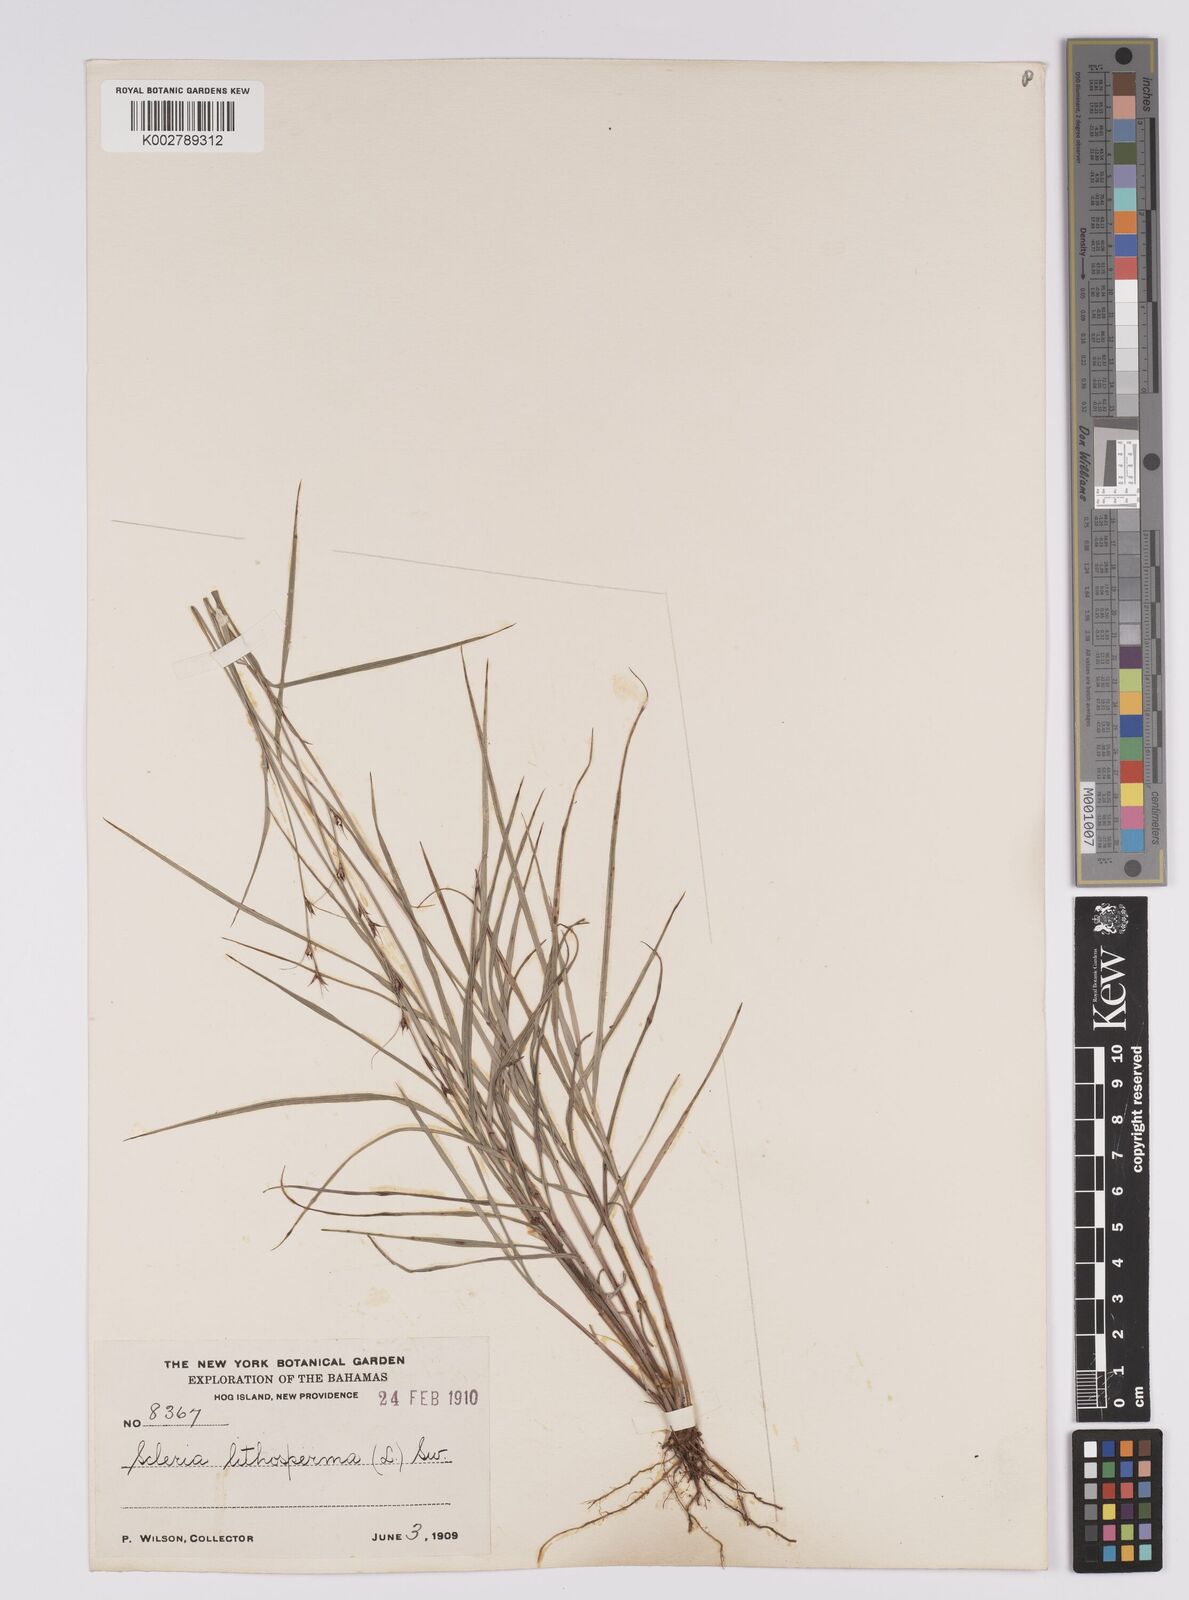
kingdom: Plantae
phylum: Tracheophyta
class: Liliopsida
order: Poales
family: Cyperaceae
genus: Scleria
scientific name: Scleria lithosperma
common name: Florida keys nut-rush
